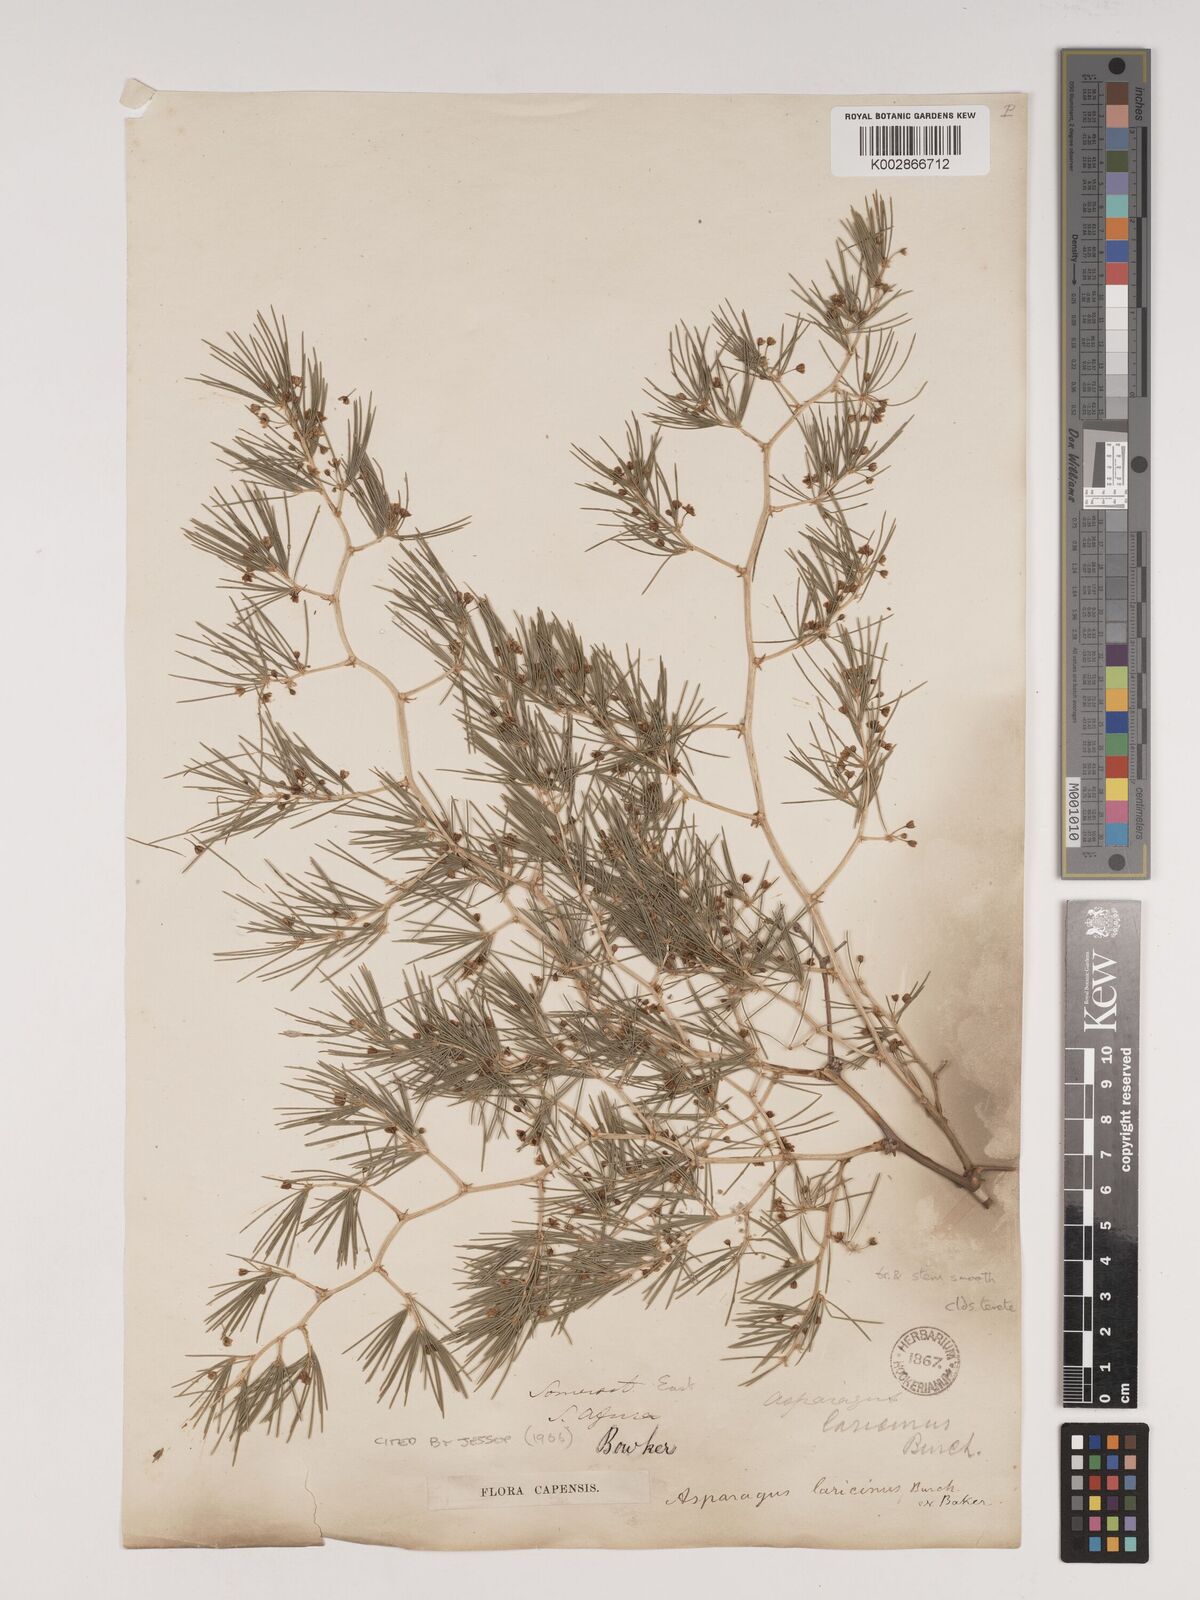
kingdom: Plantae
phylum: Tracheophyta
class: Liliopsida
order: Asparagales
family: Asparagaceae
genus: Asparagus
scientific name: Asparagus laricinus
